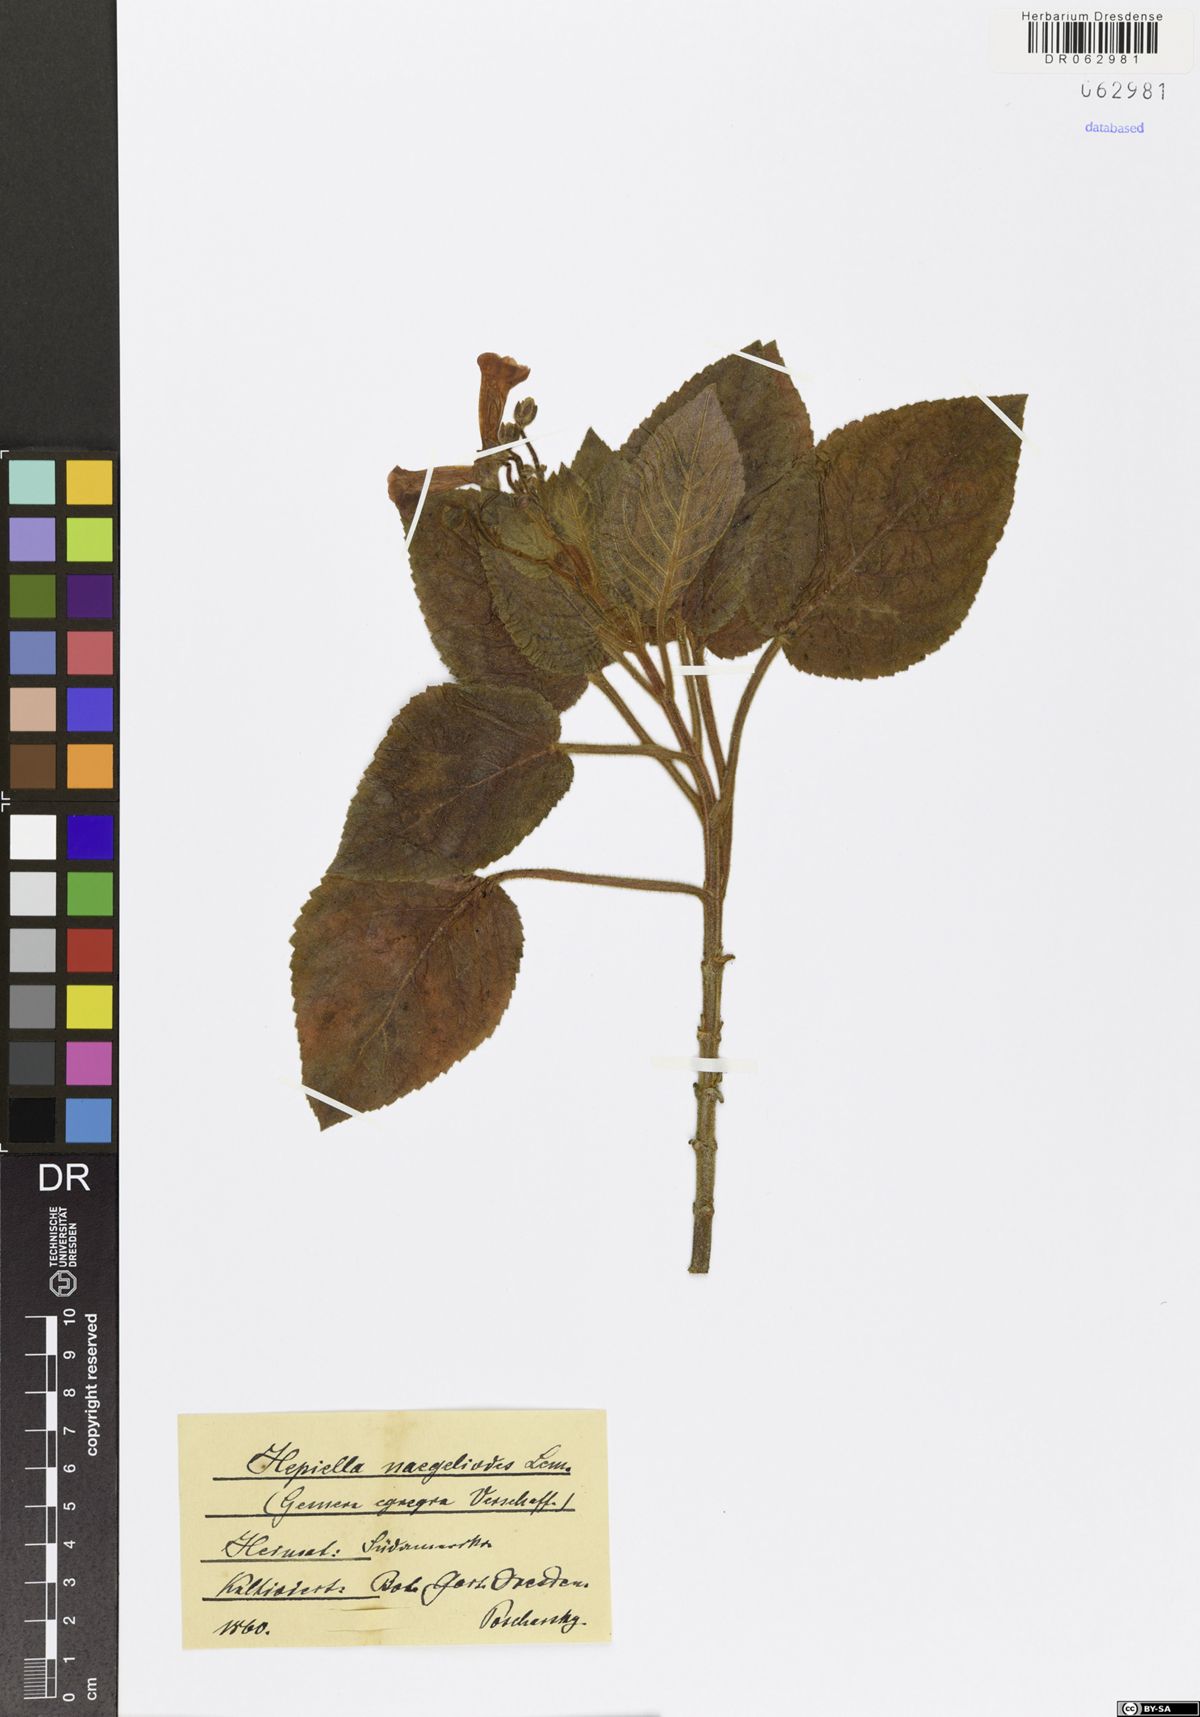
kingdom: Plantae
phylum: Tracheophyta
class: Magnoliopsida
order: Lamiales
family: Gesneriaceae
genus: Heppiantha
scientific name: Heppiantha naegelioides
